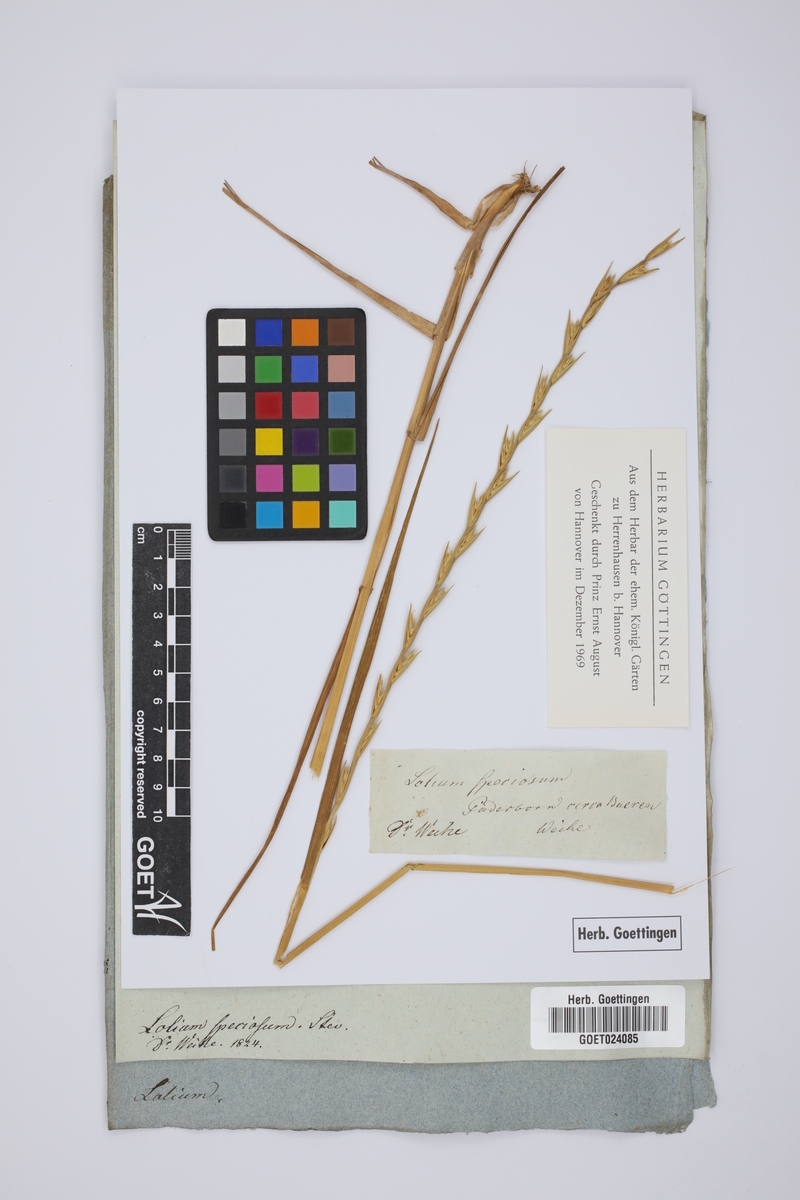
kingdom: Plantae
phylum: Tracheophyta
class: Liliopsida
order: Poales
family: Poaceae
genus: Lolium
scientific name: Lolium temulentum
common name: Darnel
